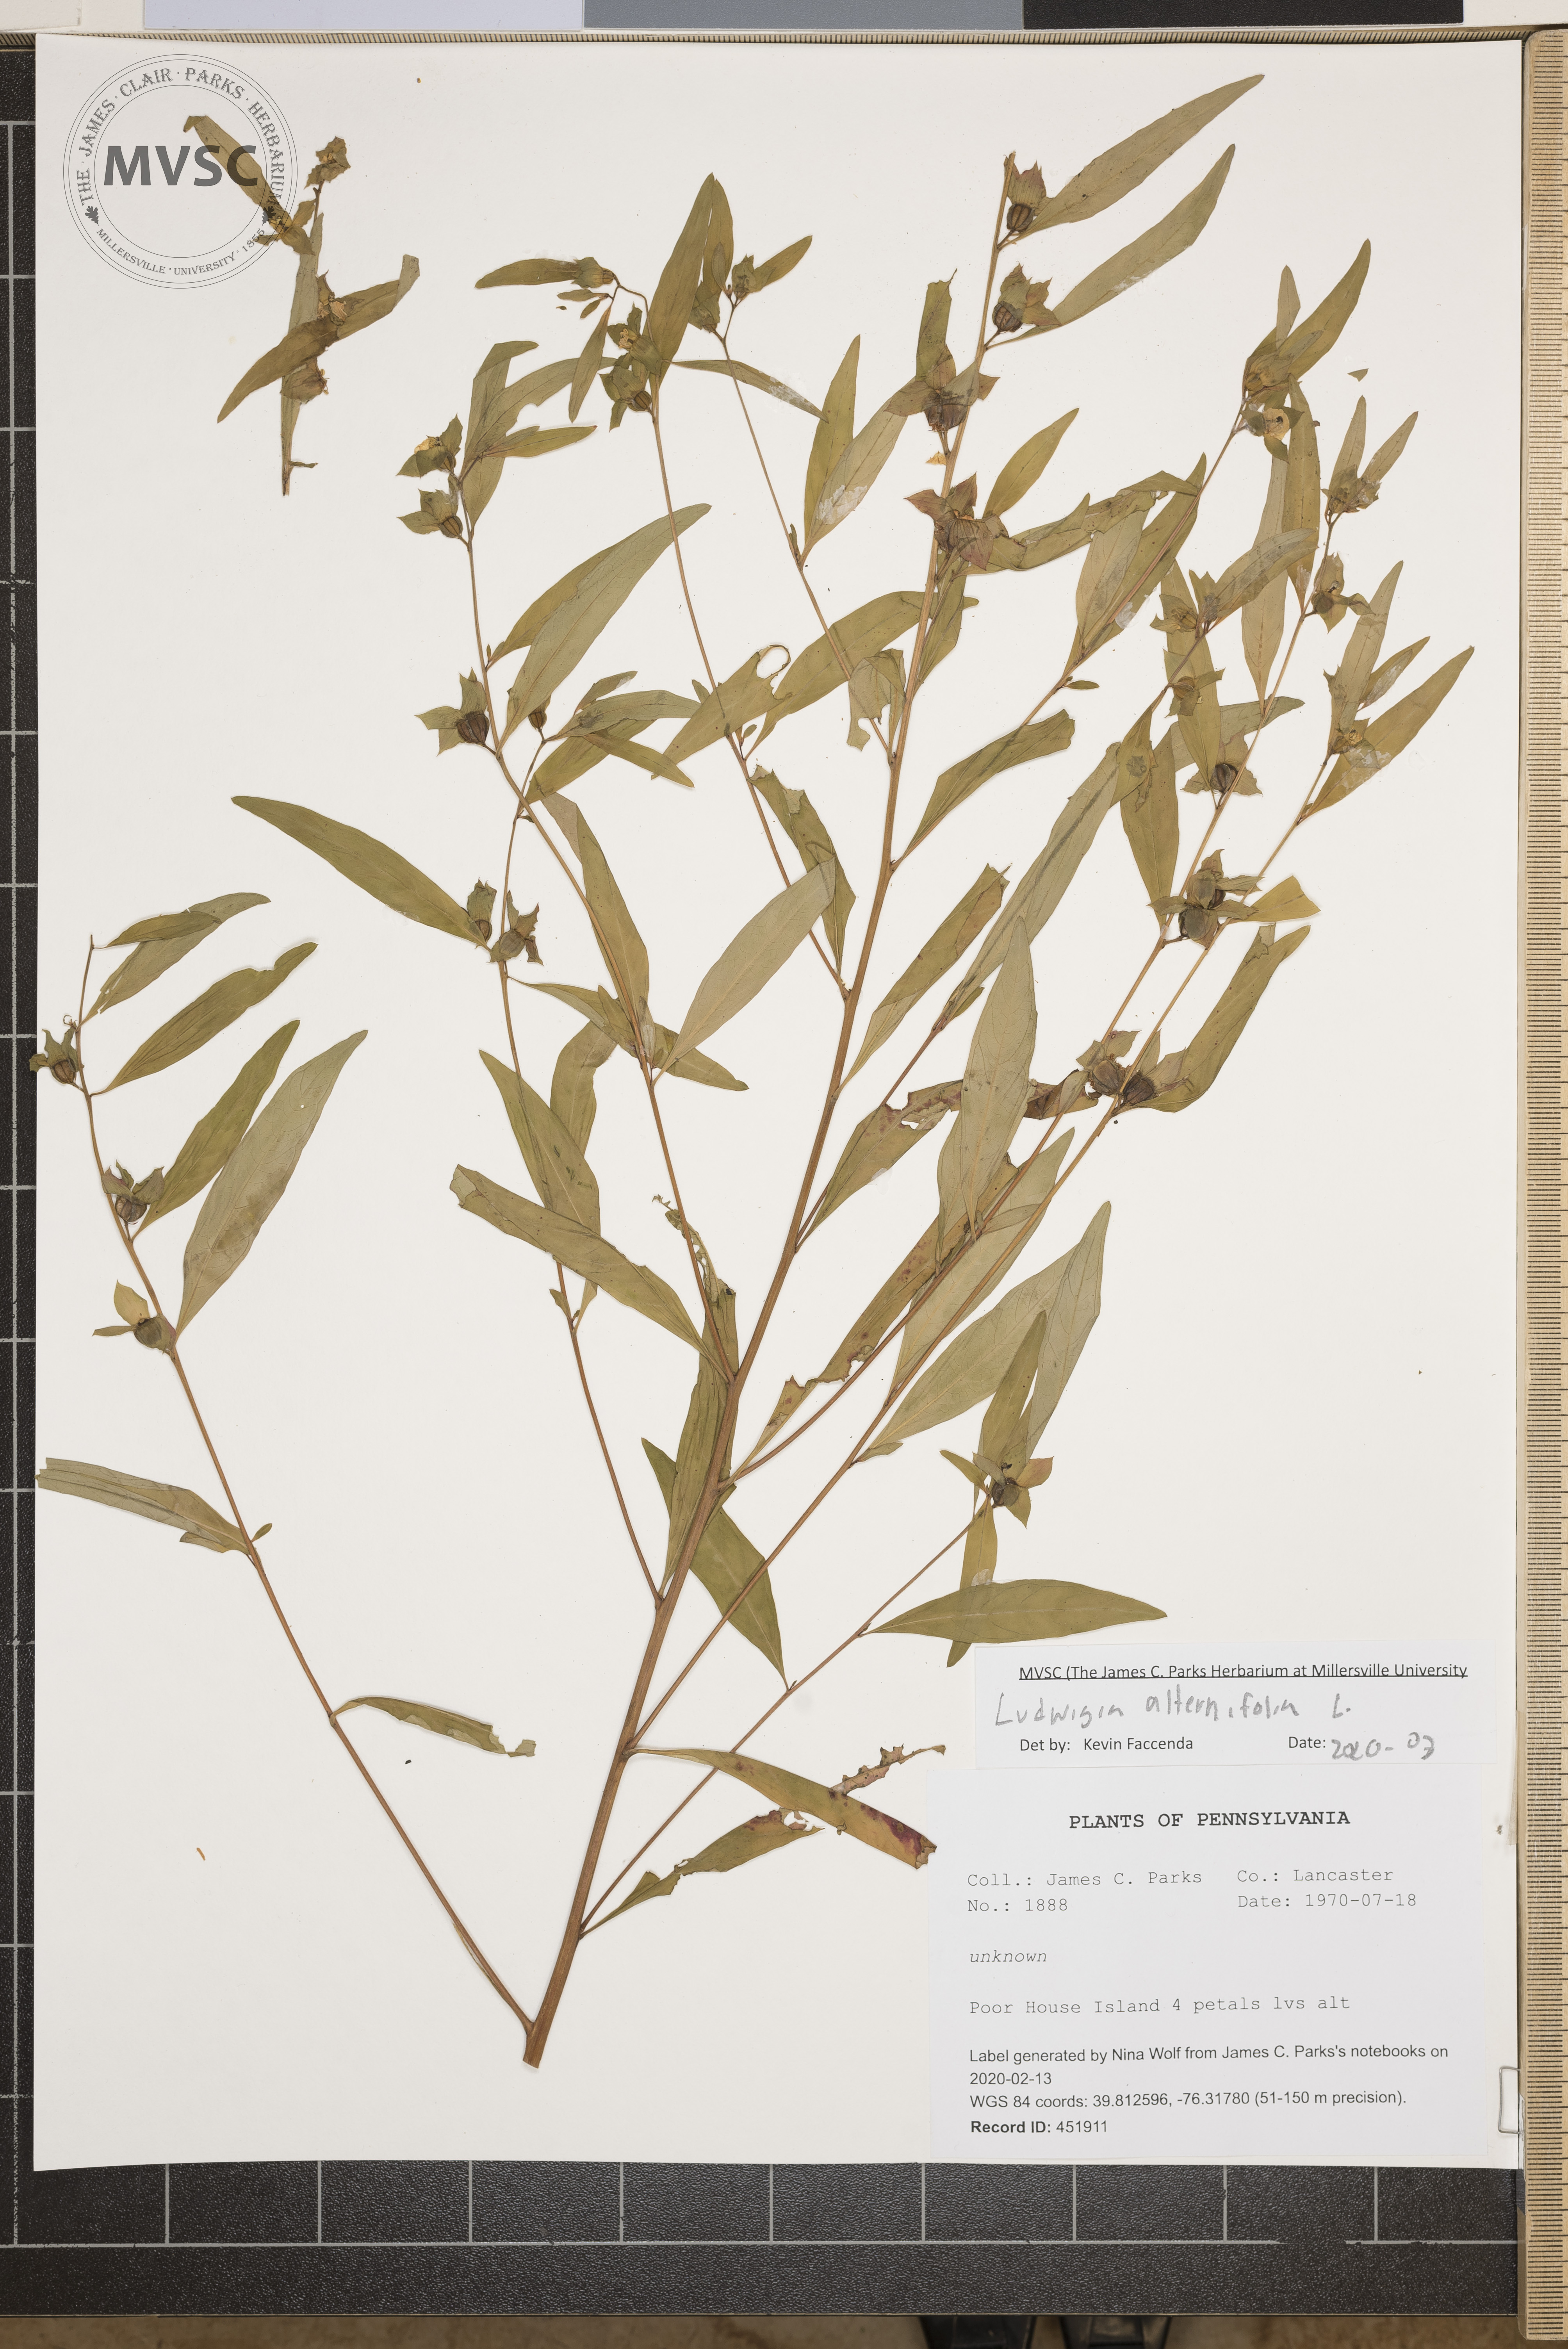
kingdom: Plantae
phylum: Tracheophyta
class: Magnoliopsida
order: Myrtales
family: Onagraceae
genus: Ludwigia
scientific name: Ludwigia alternifolia
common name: Rattlebox
